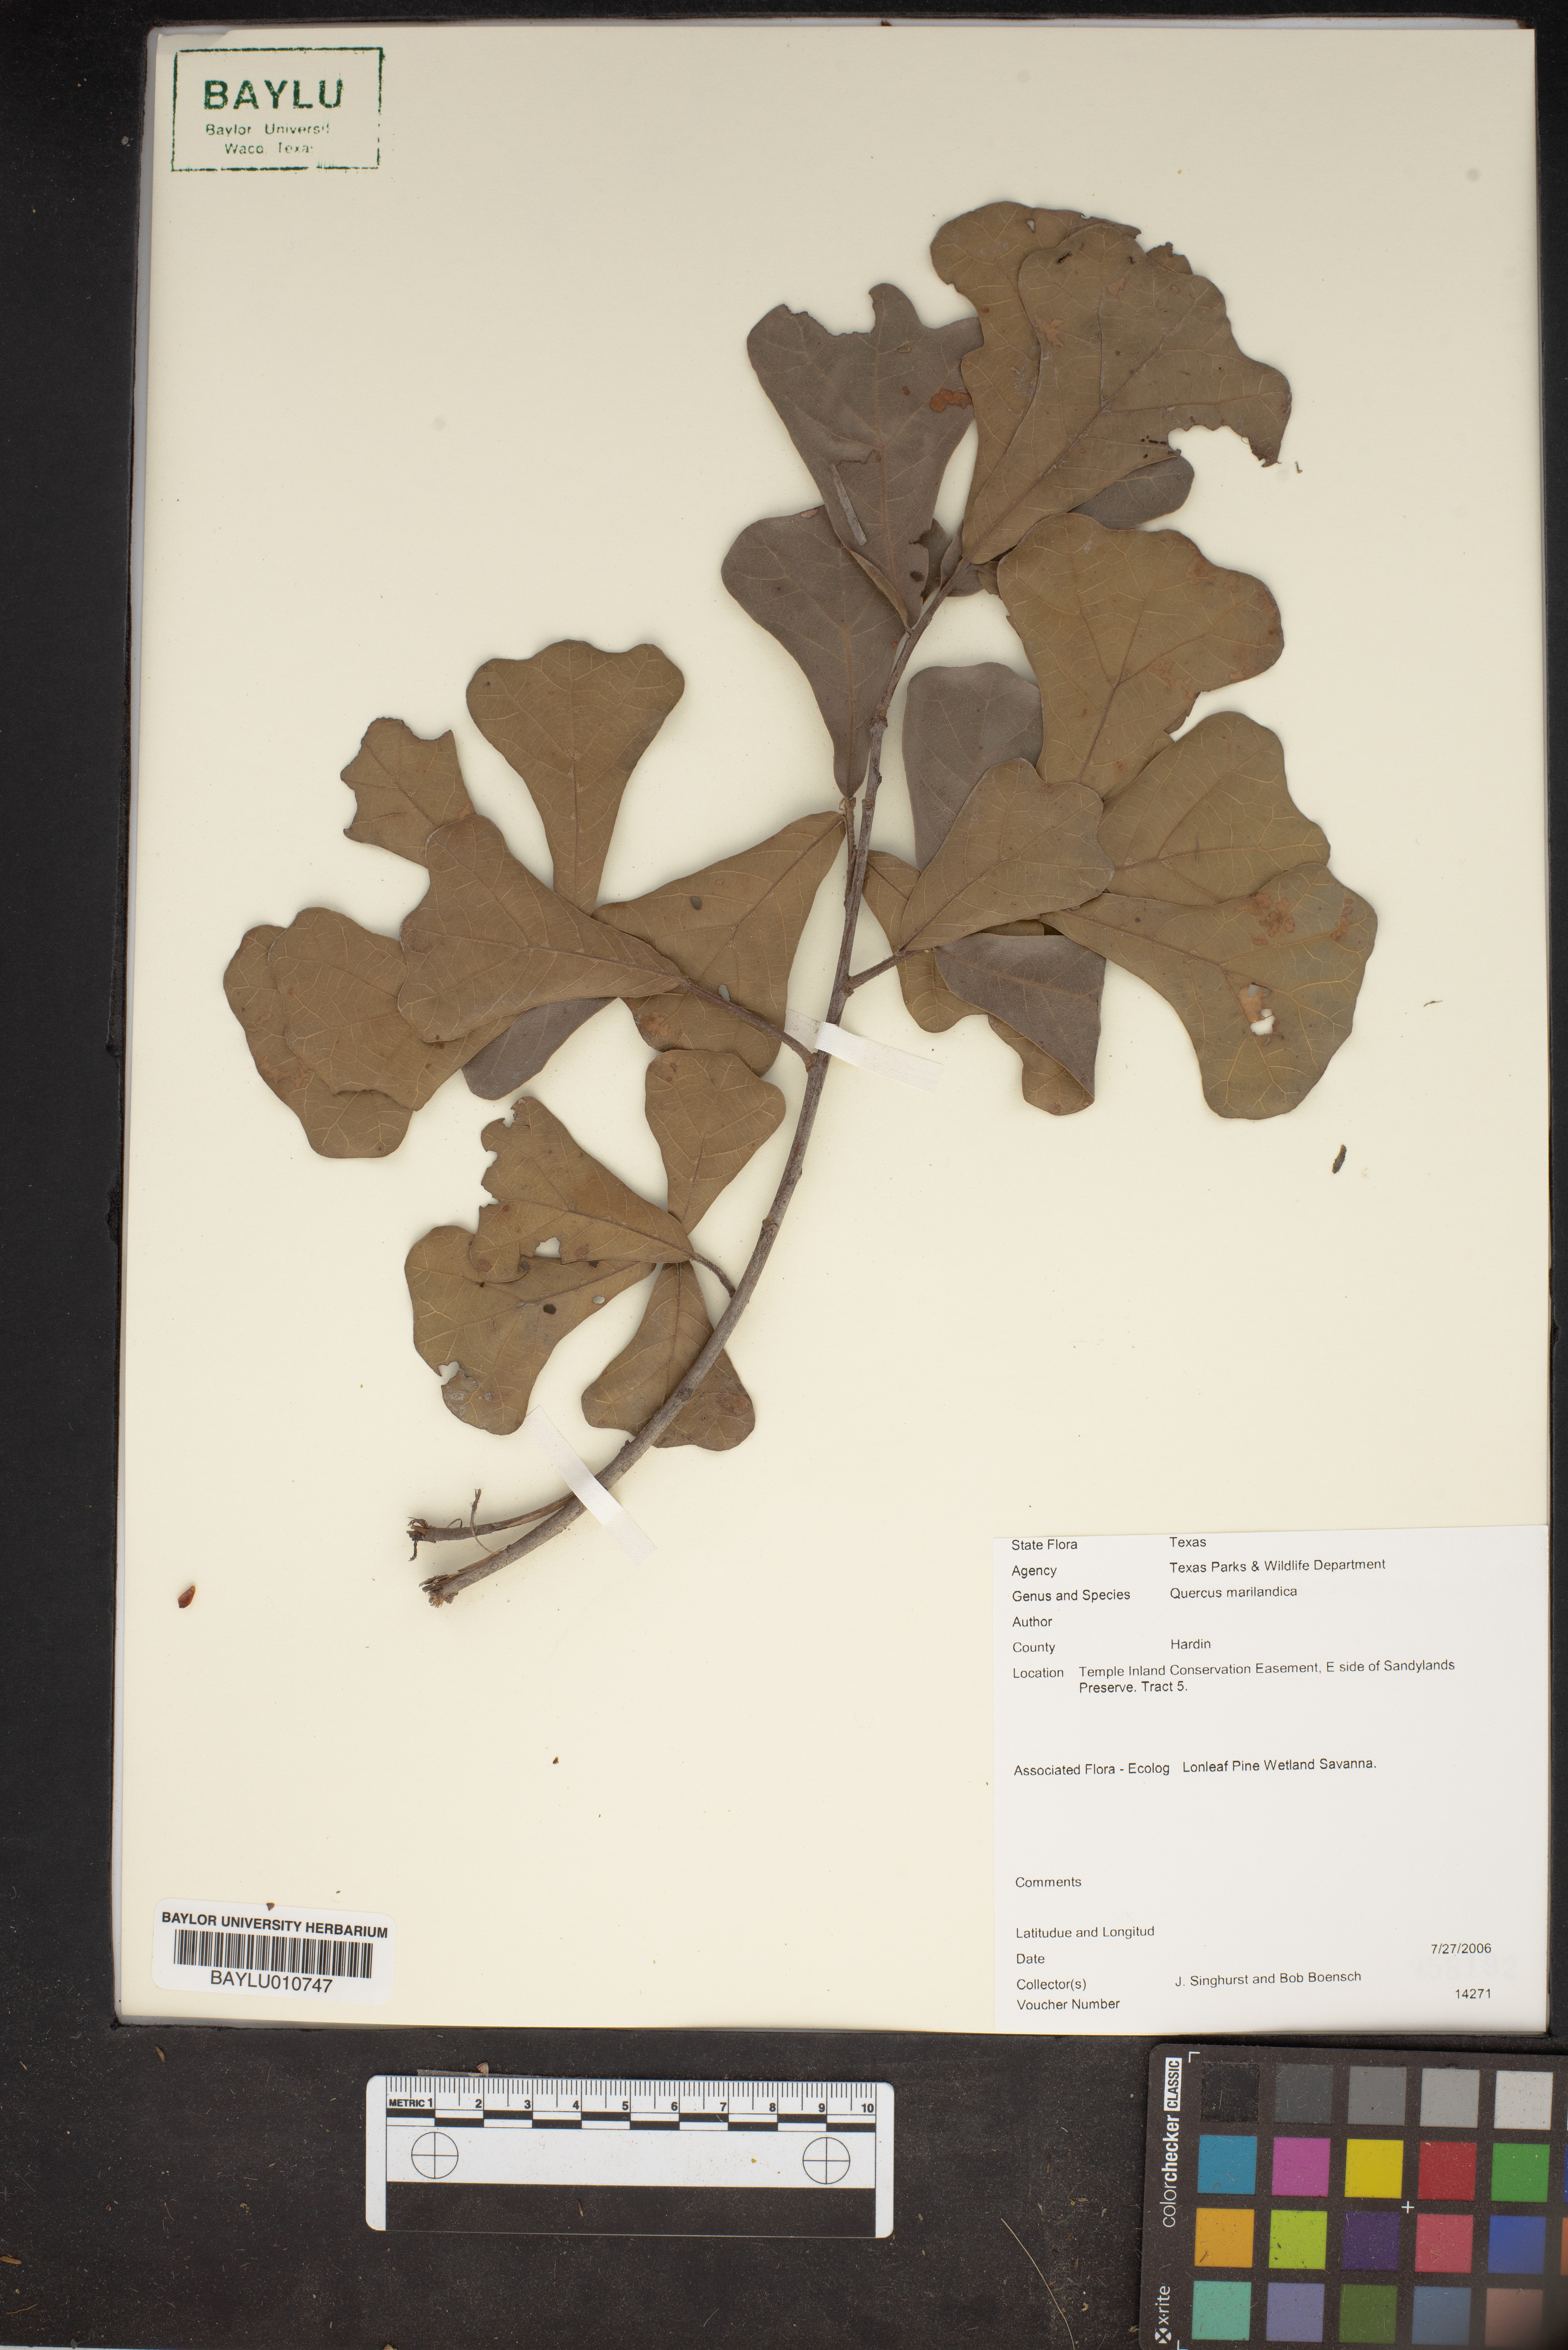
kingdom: Plantae
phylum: Tracheophyta
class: Magnoliopsida
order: Fagales
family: Fagaceae
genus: Quercus
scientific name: Quercus marilandica
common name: Blackjack oak
